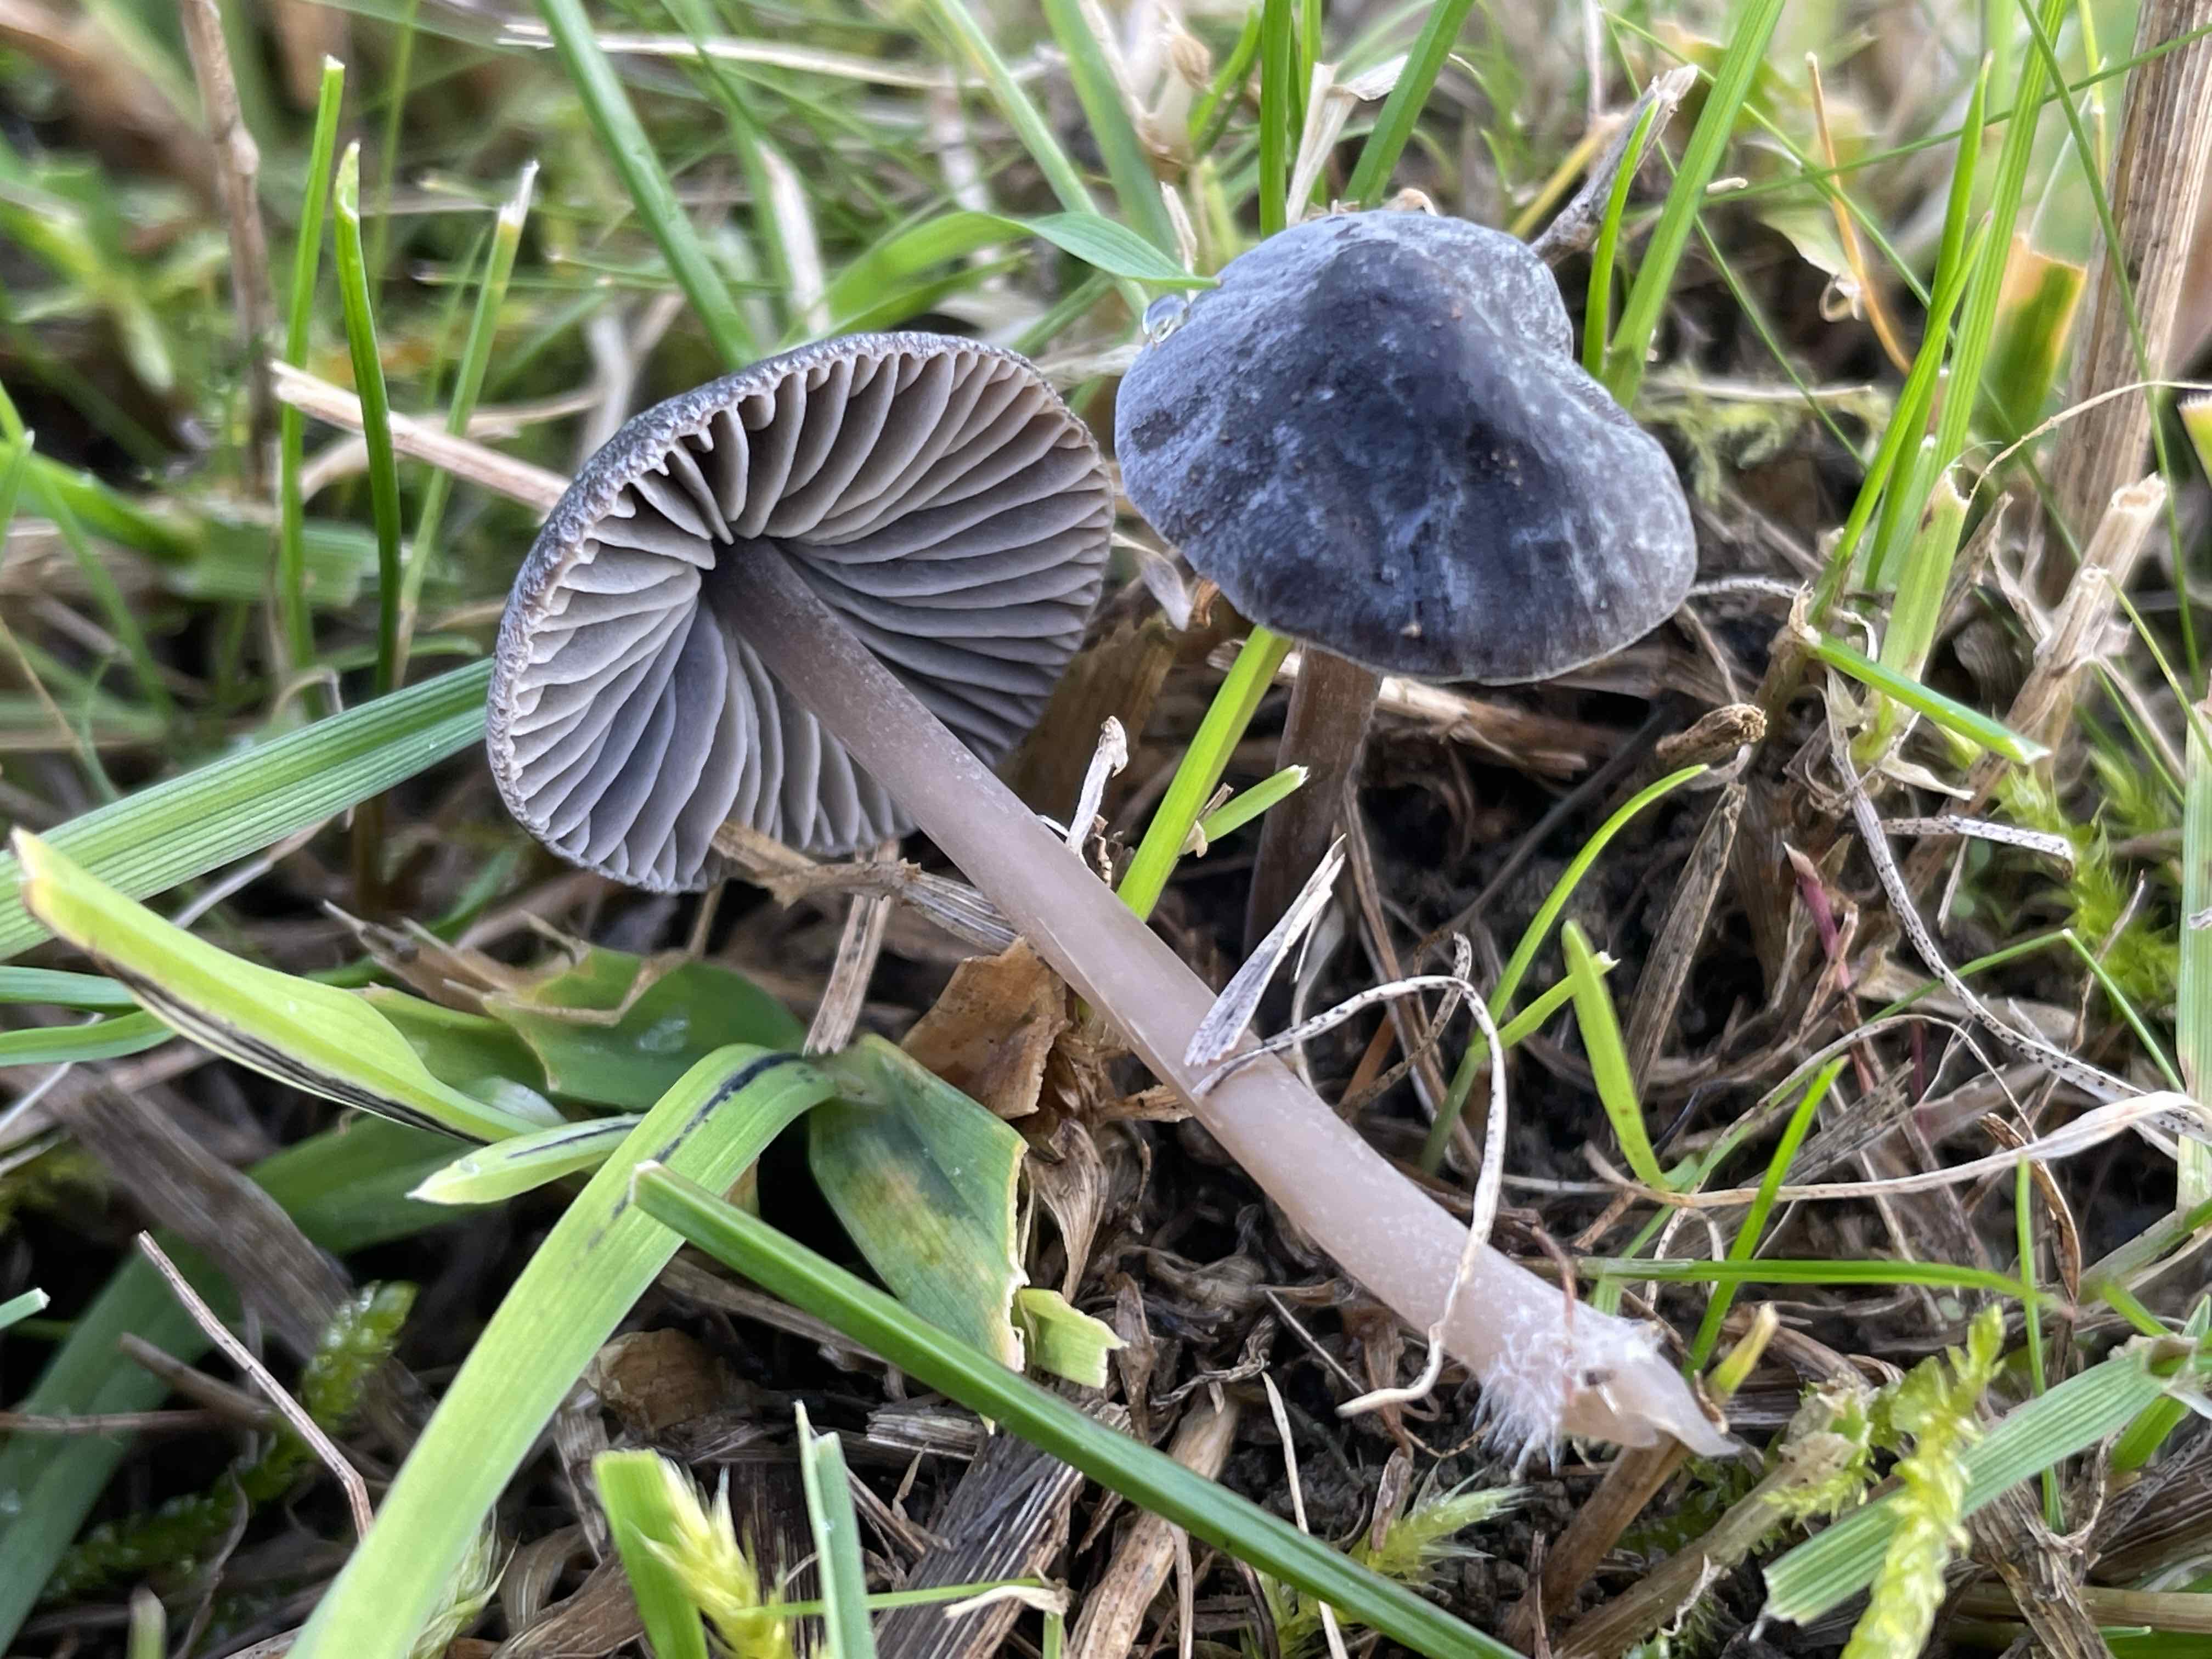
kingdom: Fungi
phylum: Basidiomycota
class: Agaricomycetes
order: Agaricales
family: Mycenaceae
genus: Mycena
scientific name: Mycena
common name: huesvamp
